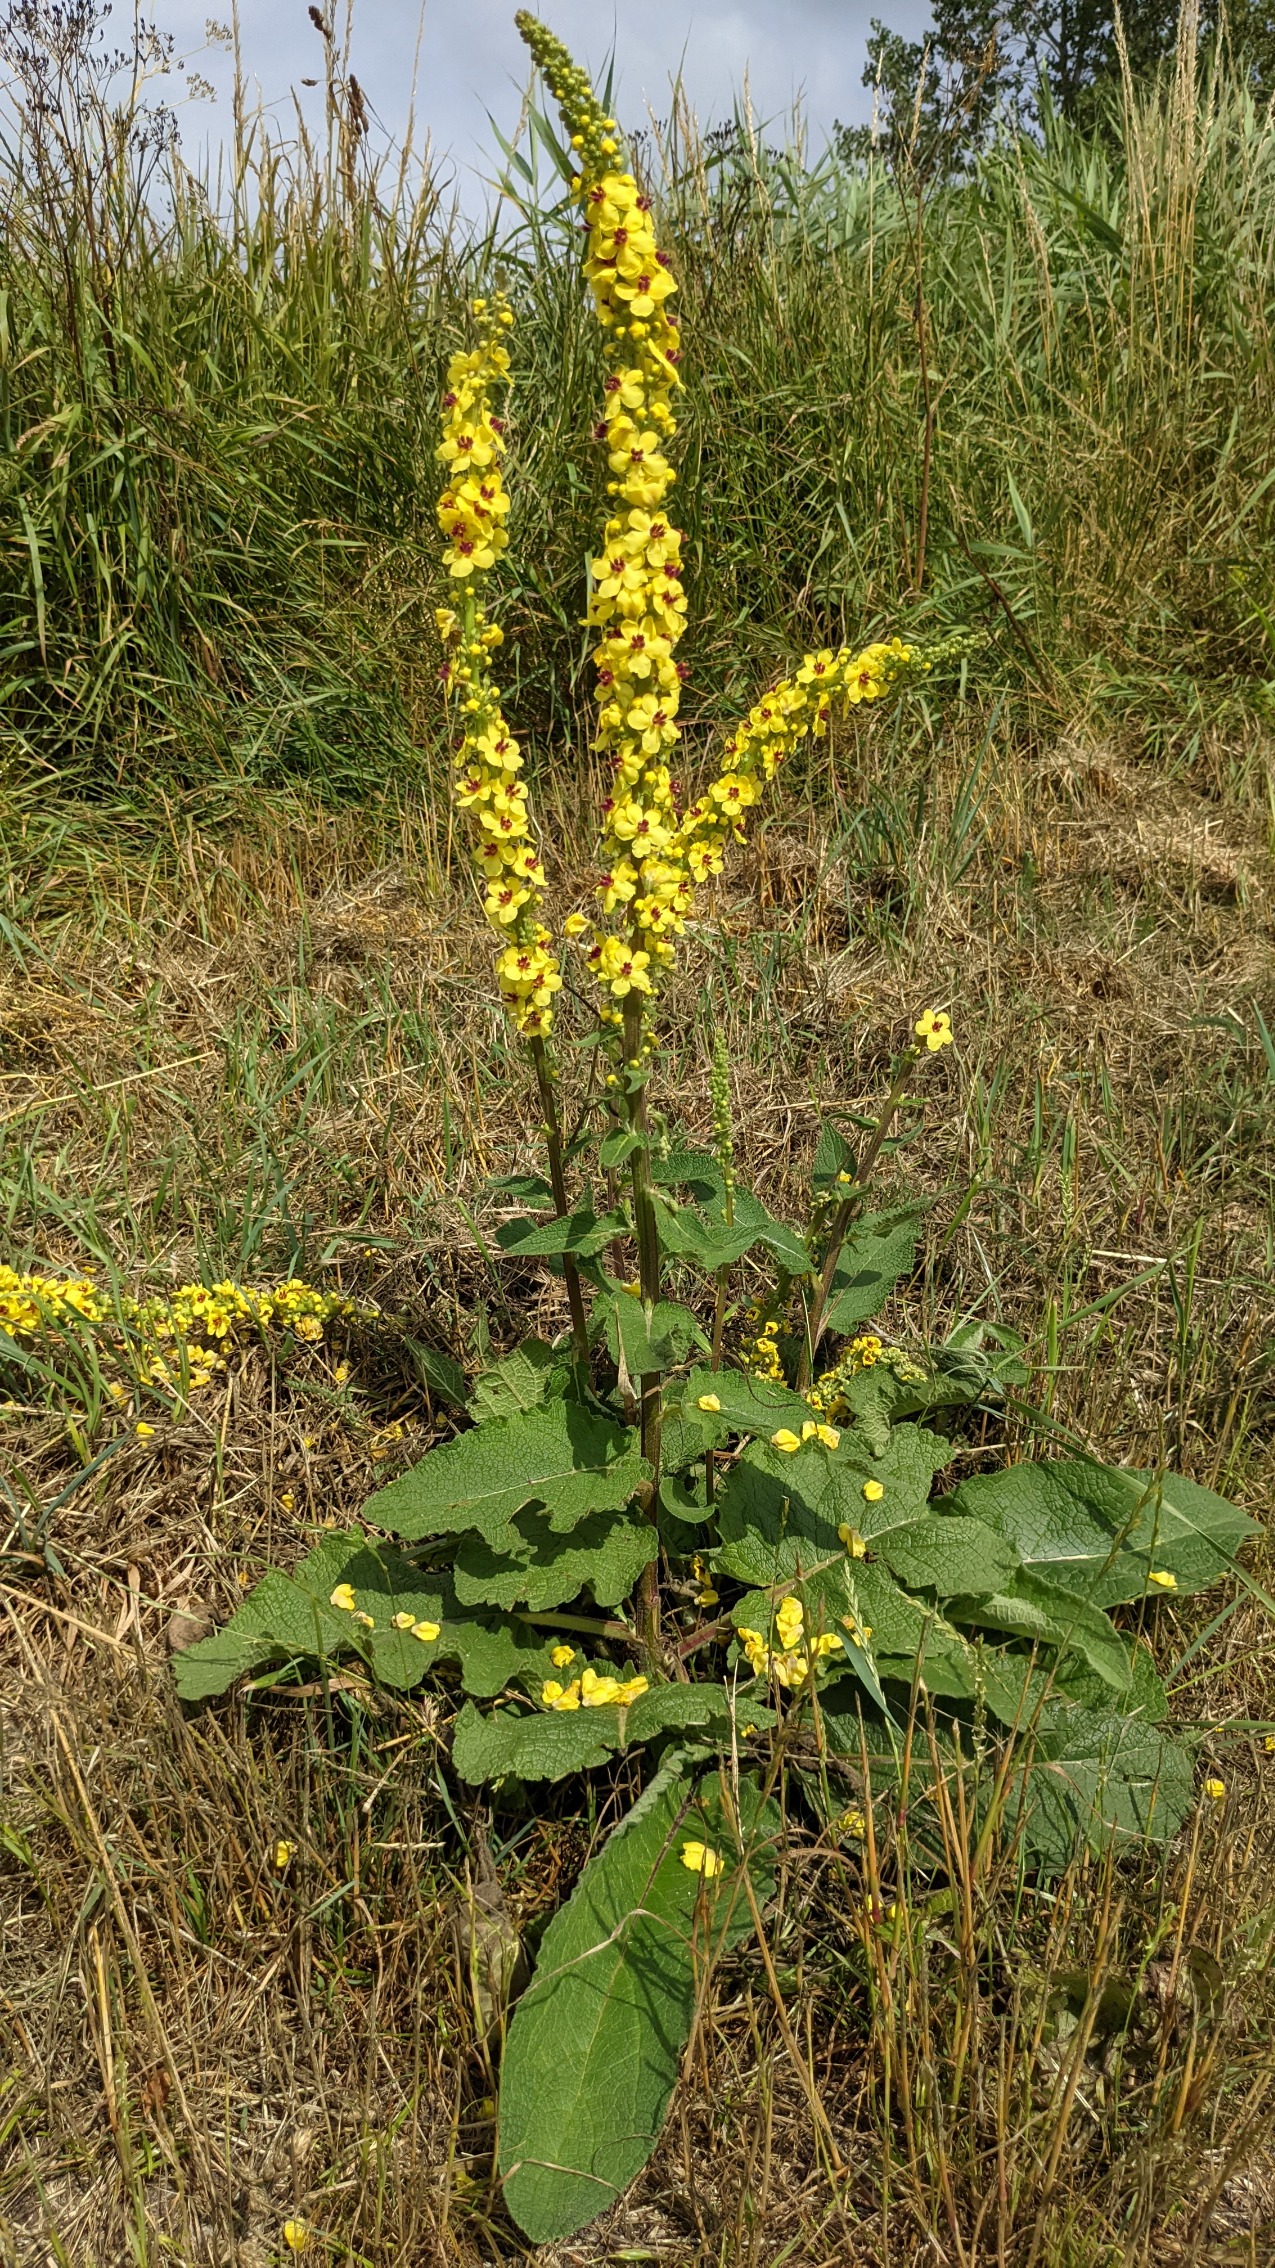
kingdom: Plantae
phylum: Tracheophyta
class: Magnoliopsida
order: Lamiales
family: Scrophulariaceae
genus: Verbascum
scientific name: Verbascum nigrum
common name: Mørk kongelys
